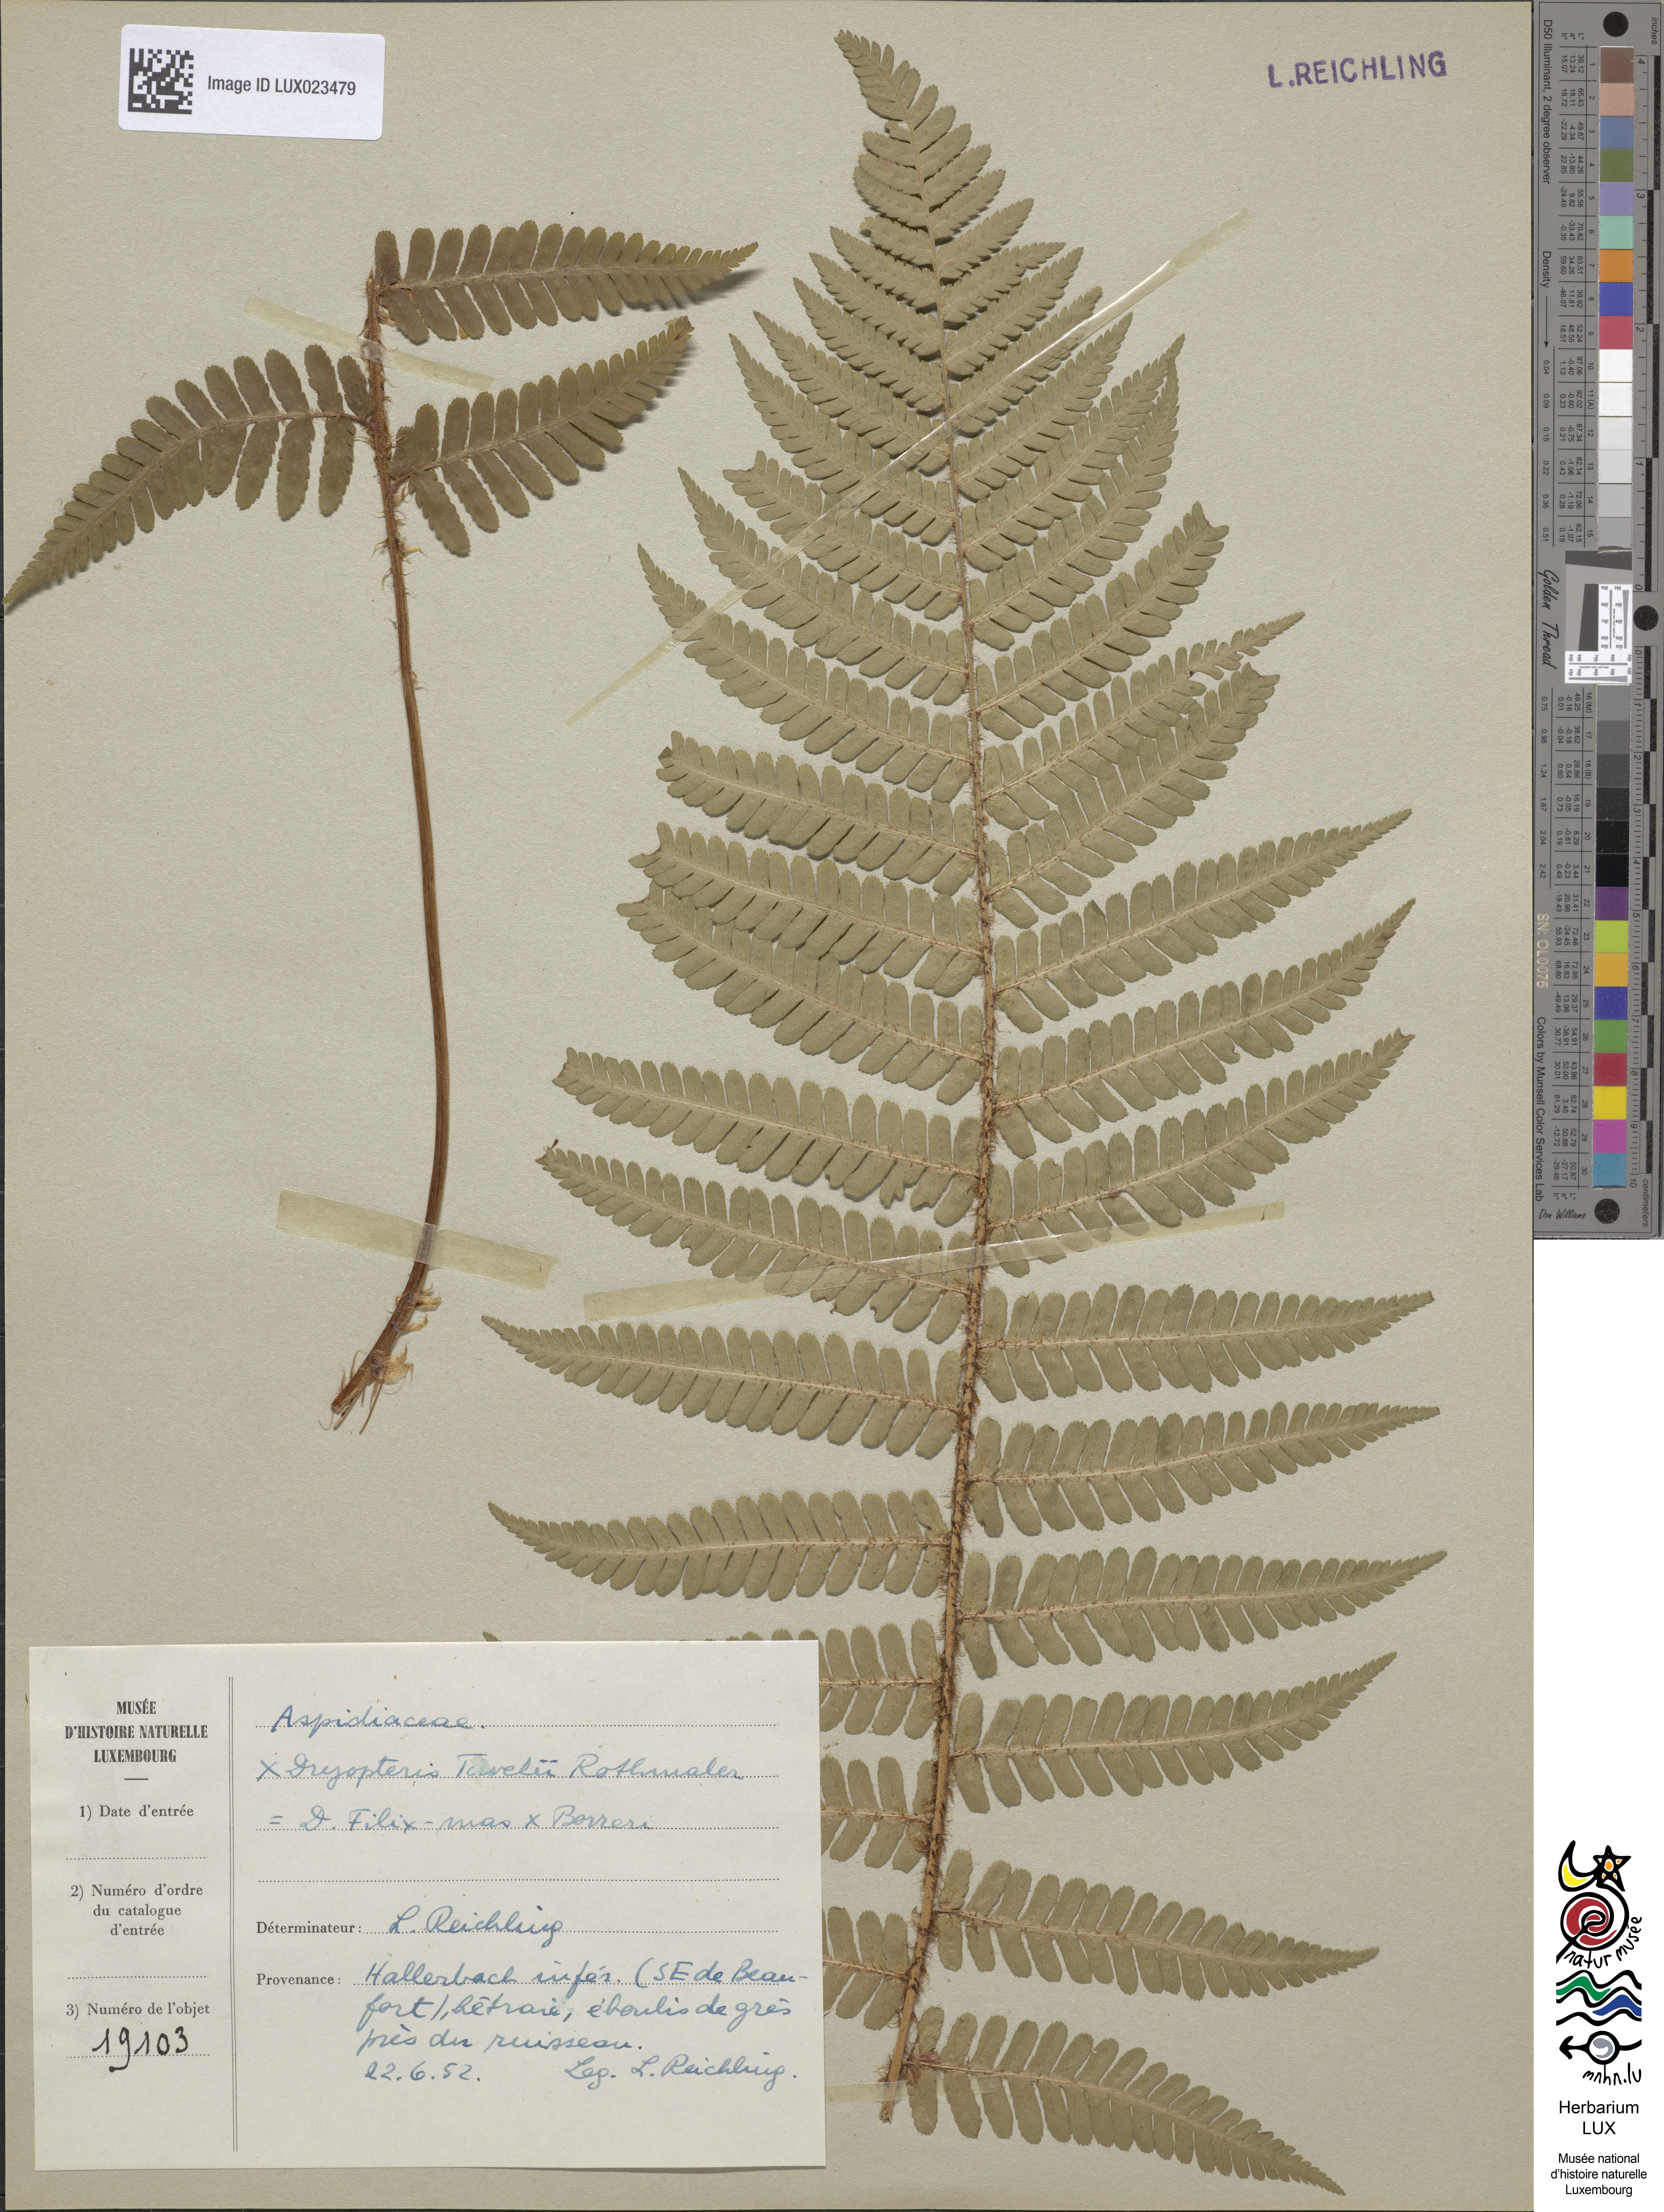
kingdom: Plantae
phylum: Tracheophyta
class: Polypodiopsida
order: Polypodiales
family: Dryopteridaceae
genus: Dryopteris
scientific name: Dryopteris borreri
